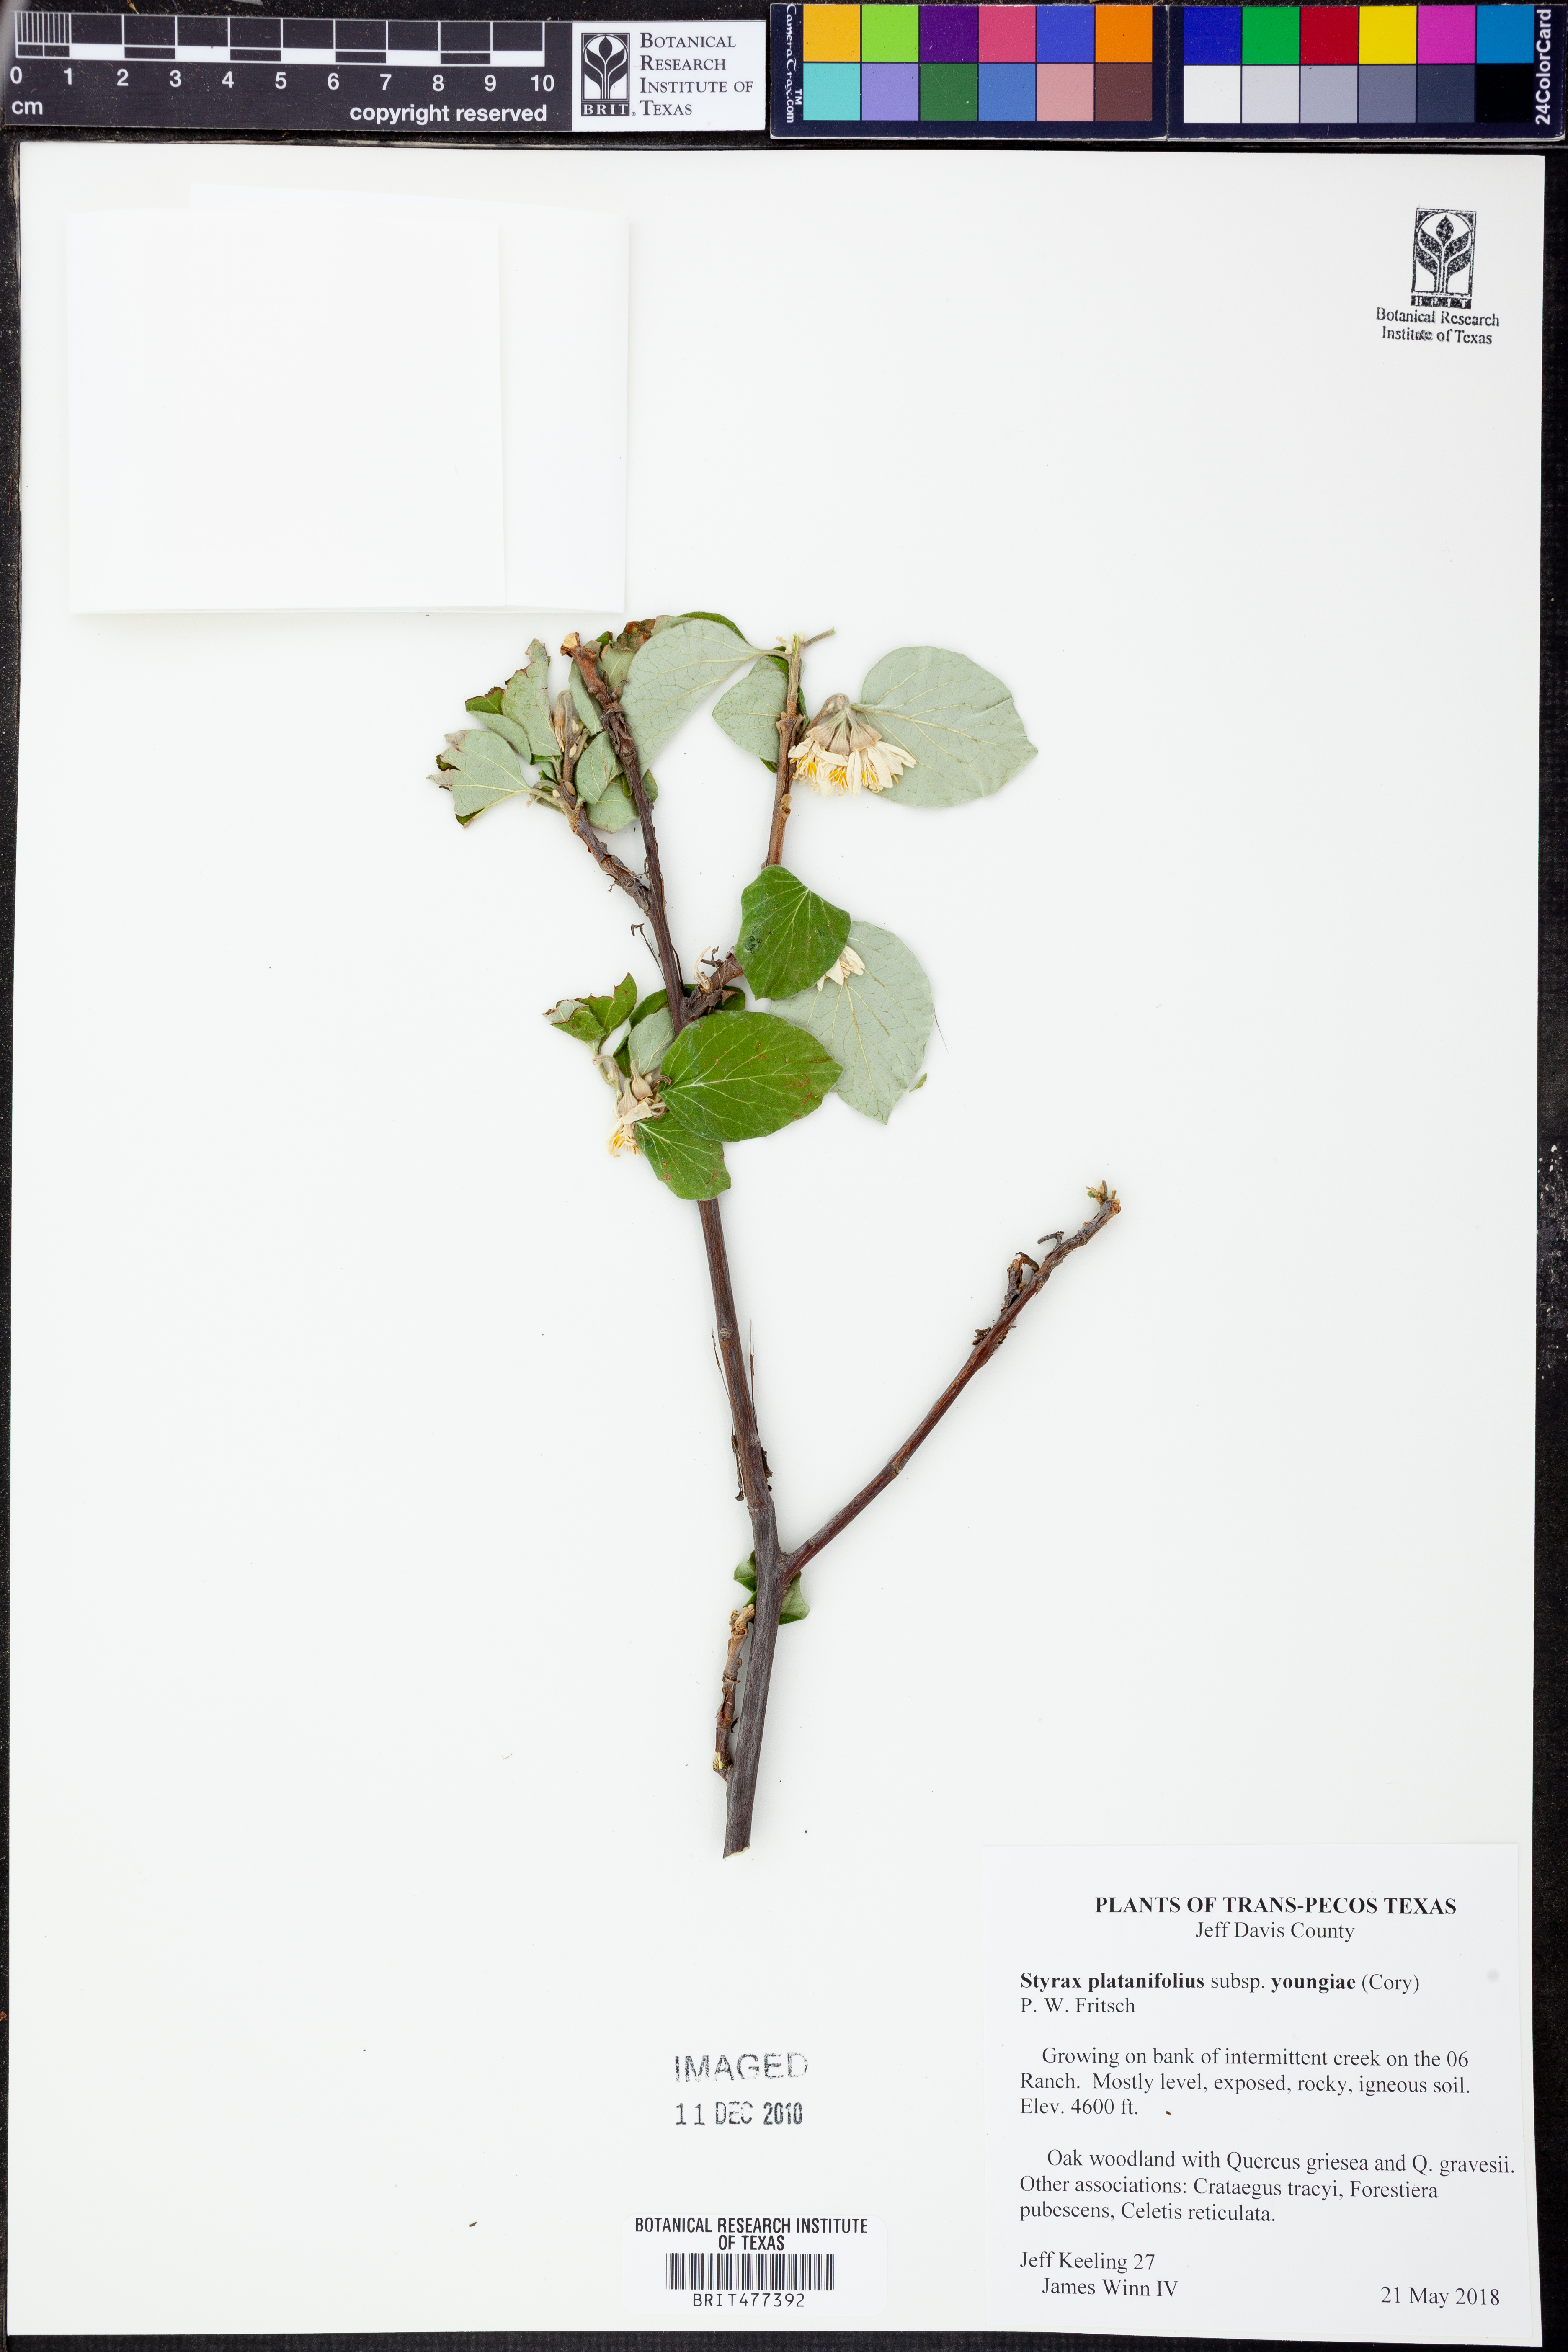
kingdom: Plantae
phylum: Tracheophyta
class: Magnoliopsida
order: Ericales
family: Styracaceae
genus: Styrax
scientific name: Styrax platanifolius
